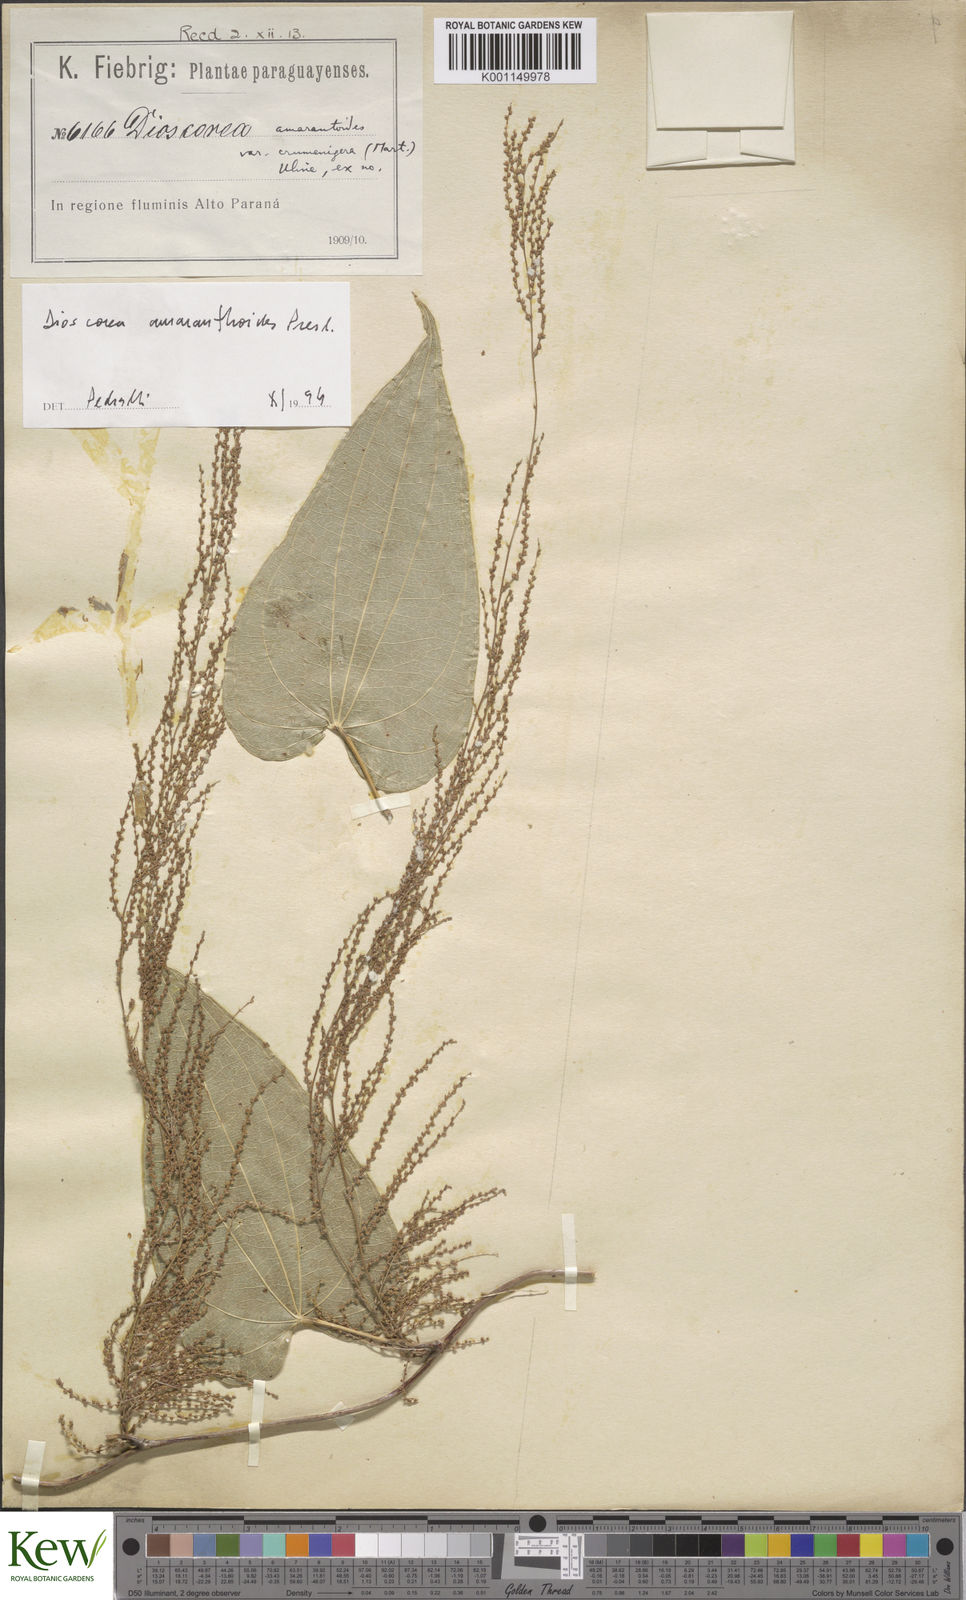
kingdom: Plantae
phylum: Tracheophyta
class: Liliopsida
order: Dioscoreales
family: Dioscoreaceae
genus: Dioscorea
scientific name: Dioscorea
